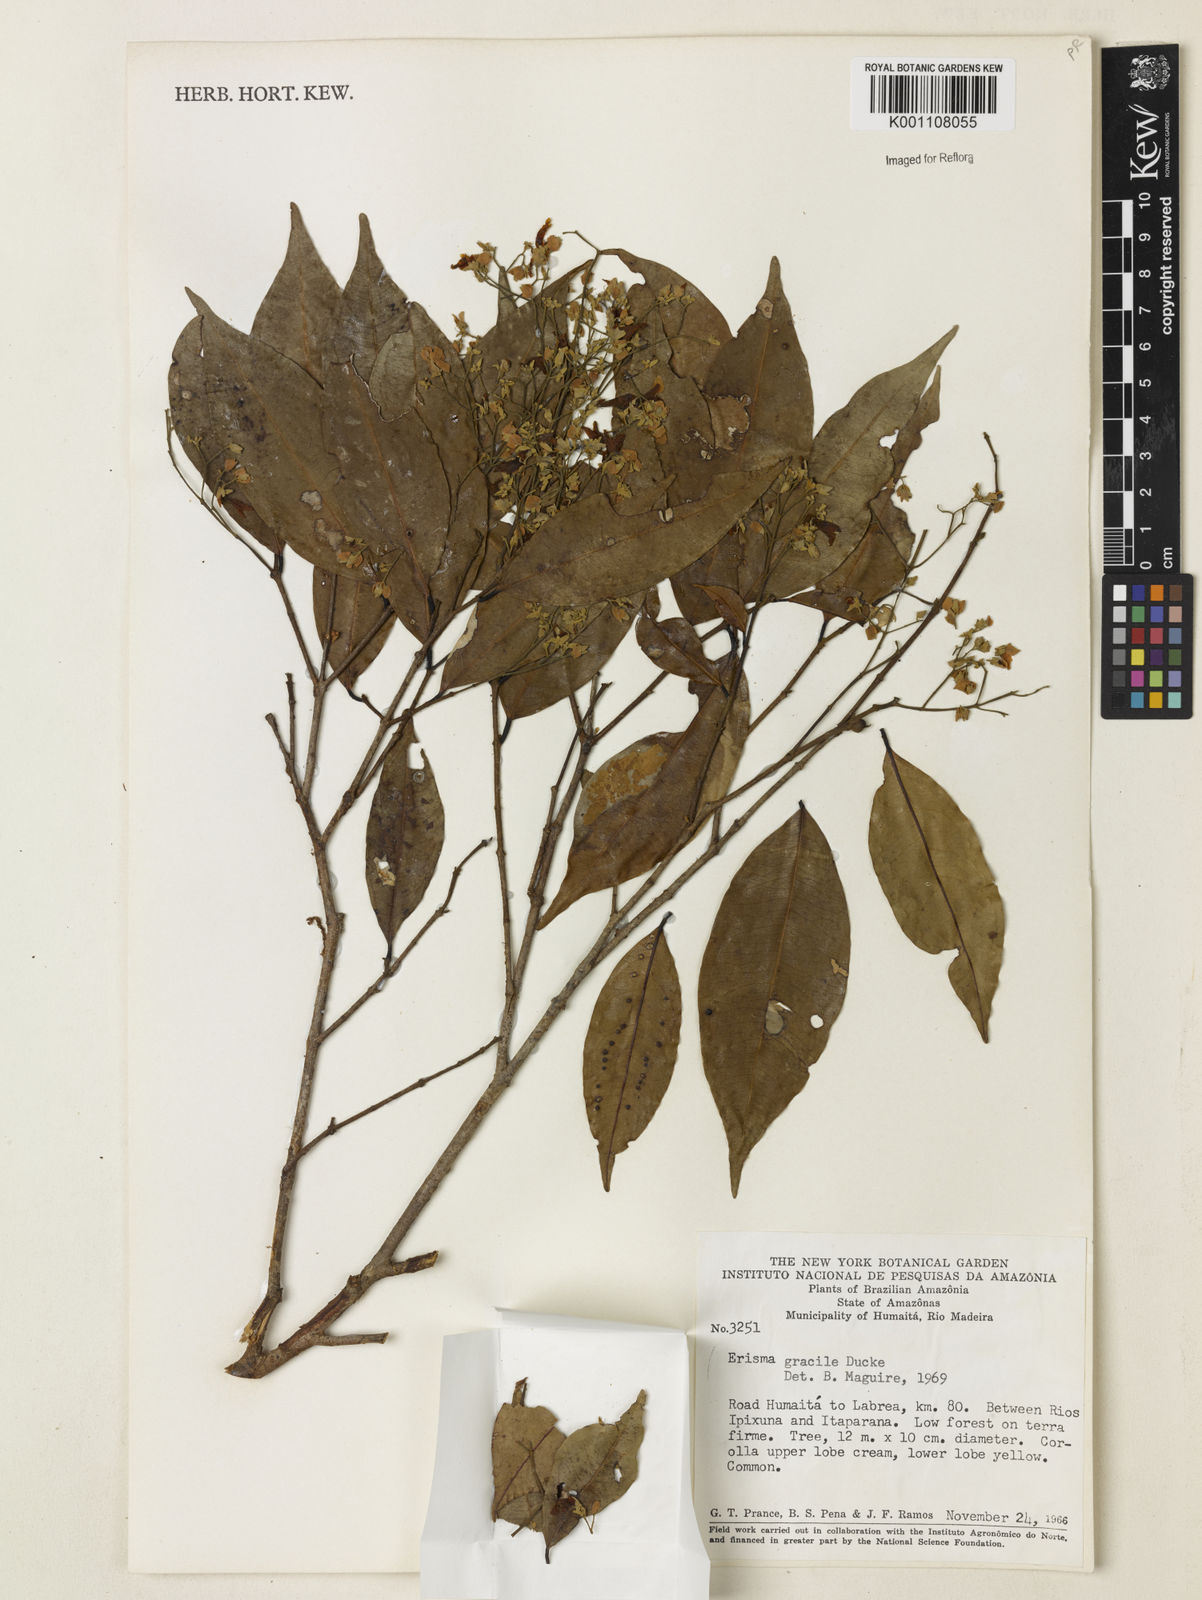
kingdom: Plantae
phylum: Tracheophyta
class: Magnoliopsida
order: Myrtales
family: Vochysiaceae
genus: Erisma
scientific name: Erisma gracile
